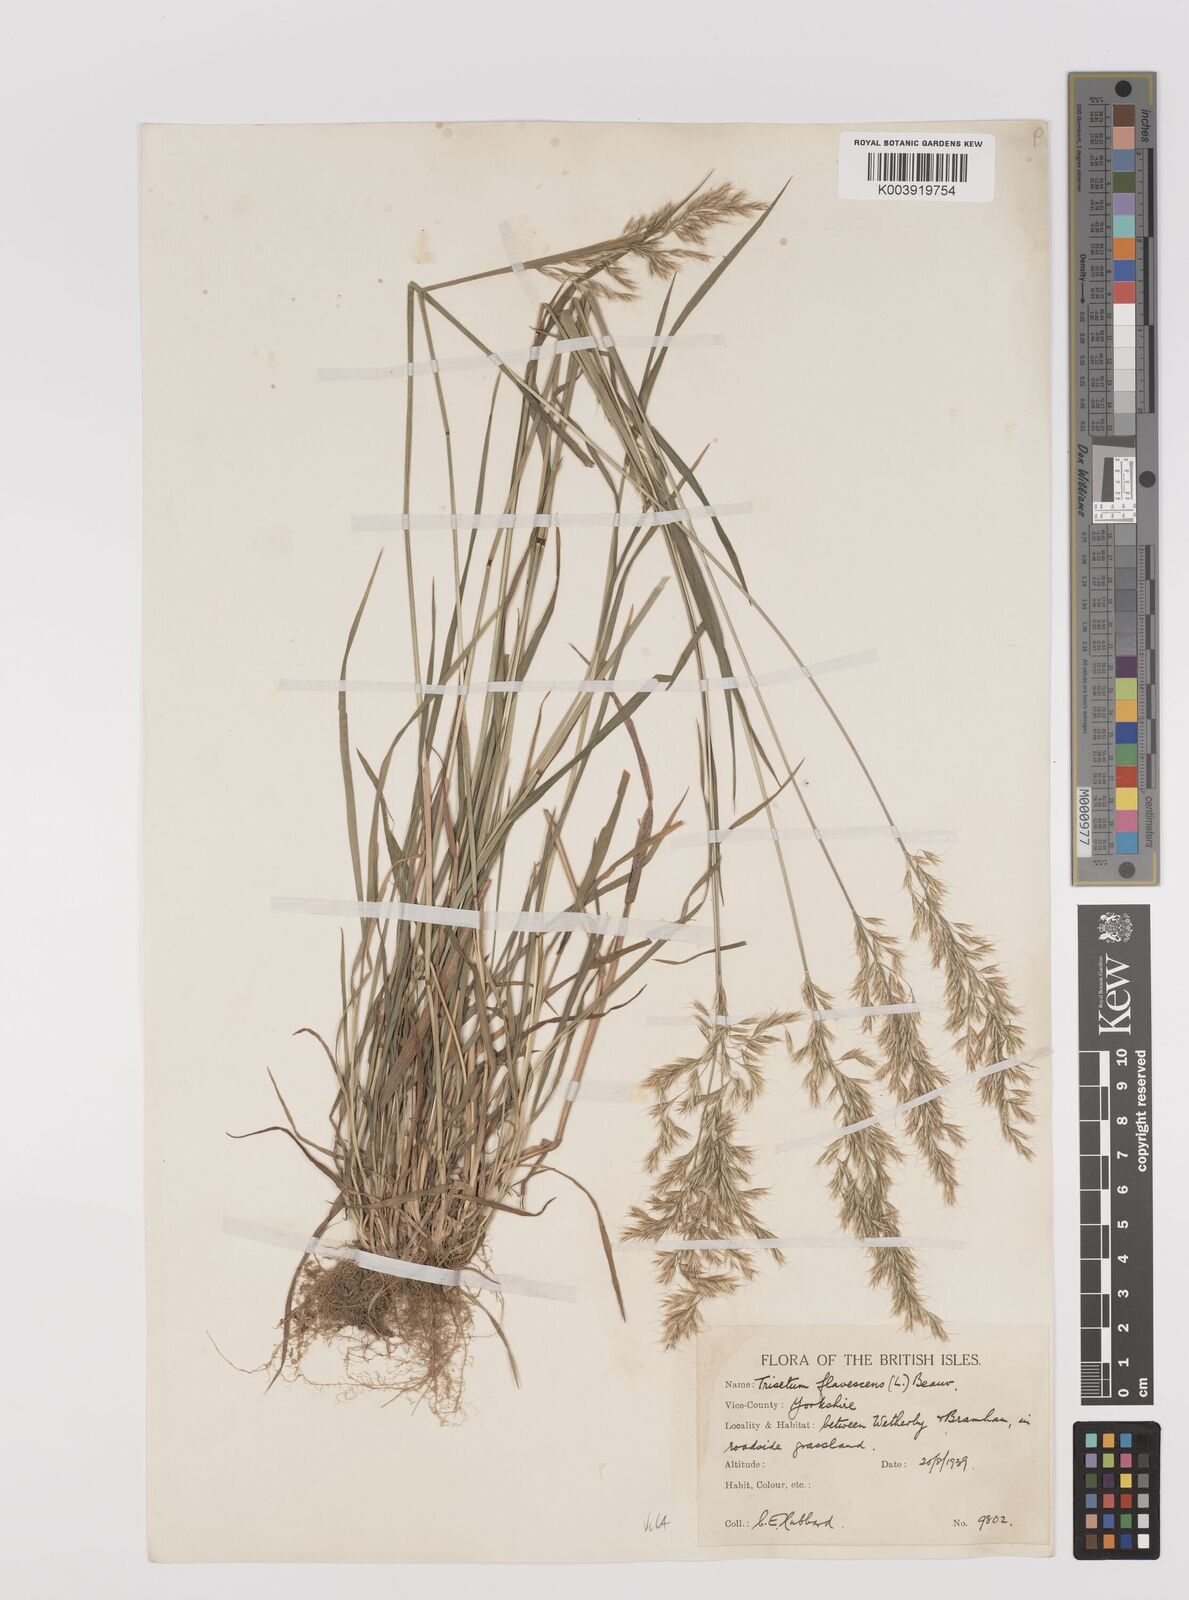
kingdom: Plantae
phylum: Tracheophyta
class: Liliopsida
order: Poales
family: Poaceae
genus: Trisetum
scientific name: Trisetum flavescens
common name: Yellow oat-grass
